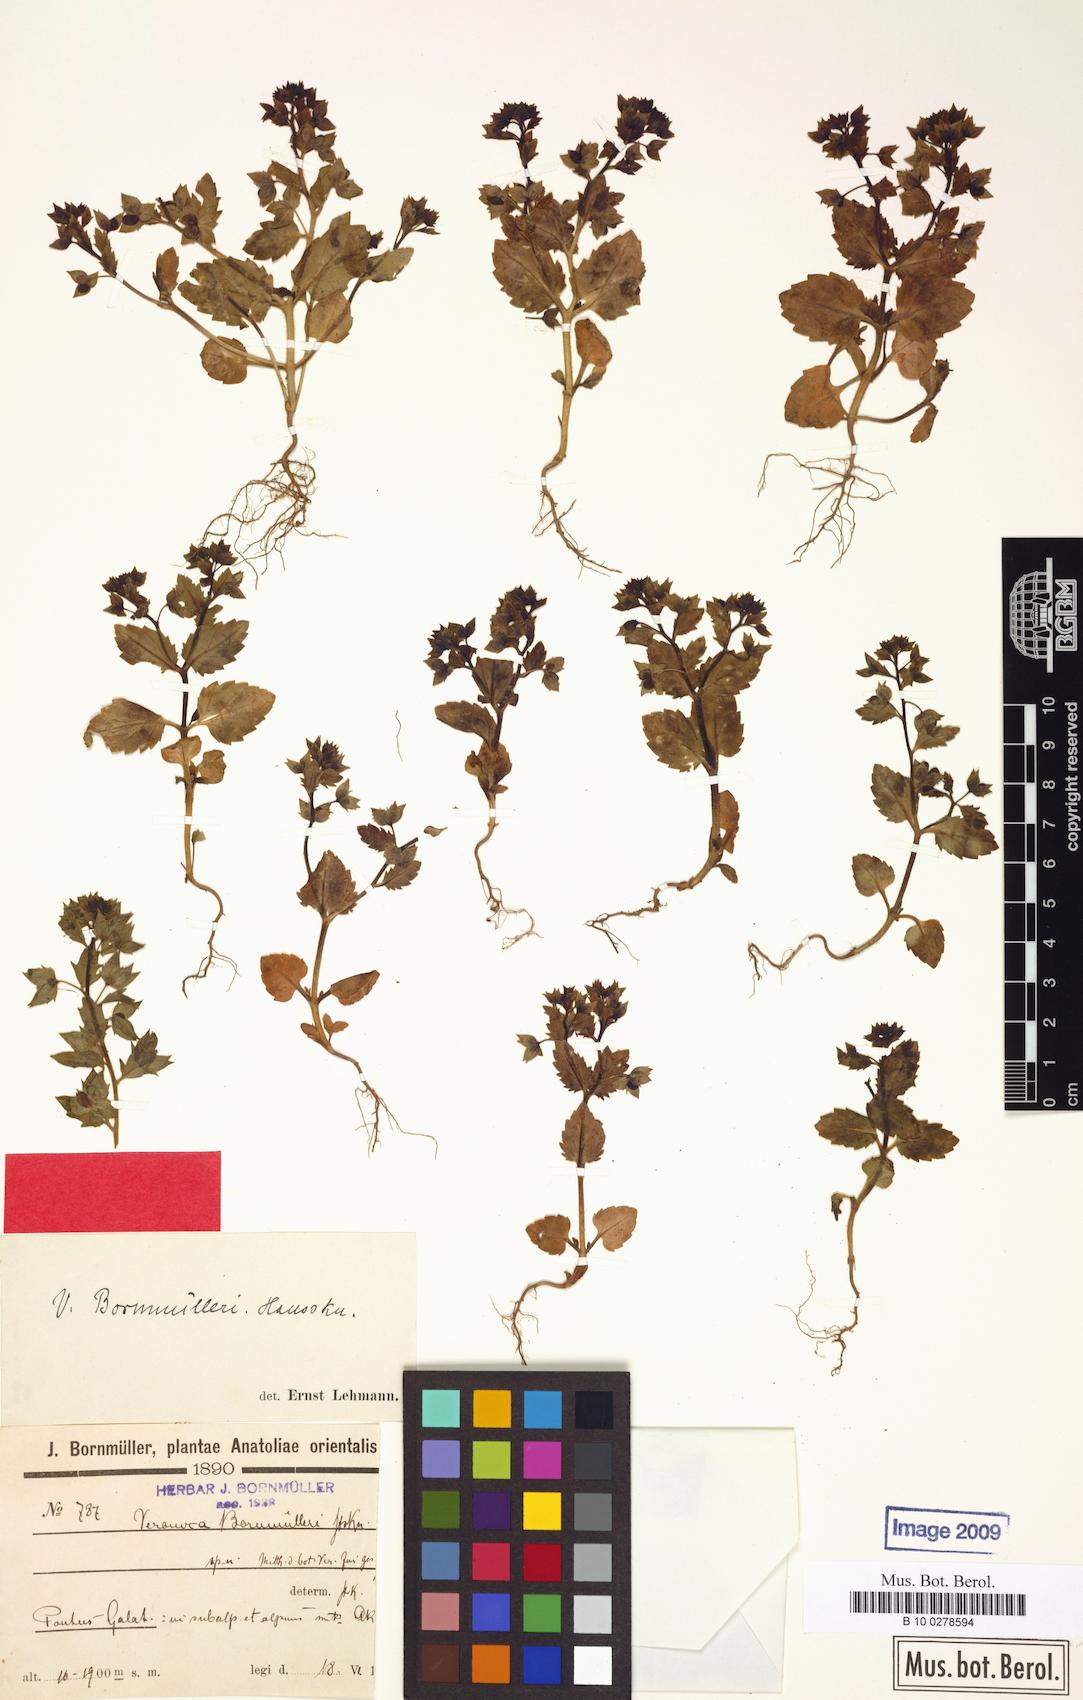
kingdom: Plantae
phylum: Tracheophyta
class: Magnoliopsida
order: Lamiales
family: Plantaginaceae
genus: Veronica
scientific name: Veronica argute-serrata
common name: Sawtooth speedwell
